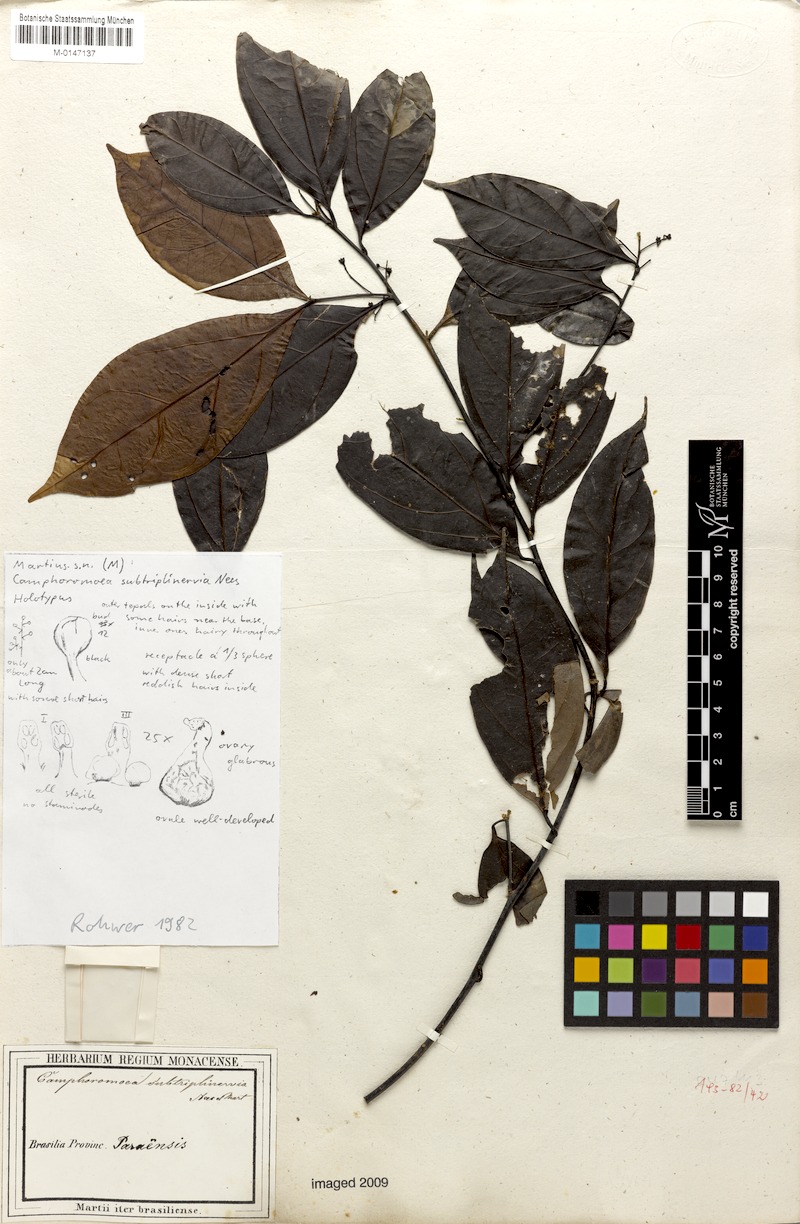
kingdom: Plantae
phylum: Tracheophyta
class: Magnoliopsida
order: Laurales
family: Lauraceae
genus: Ocotea
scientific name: Ocotea camphoromoea
